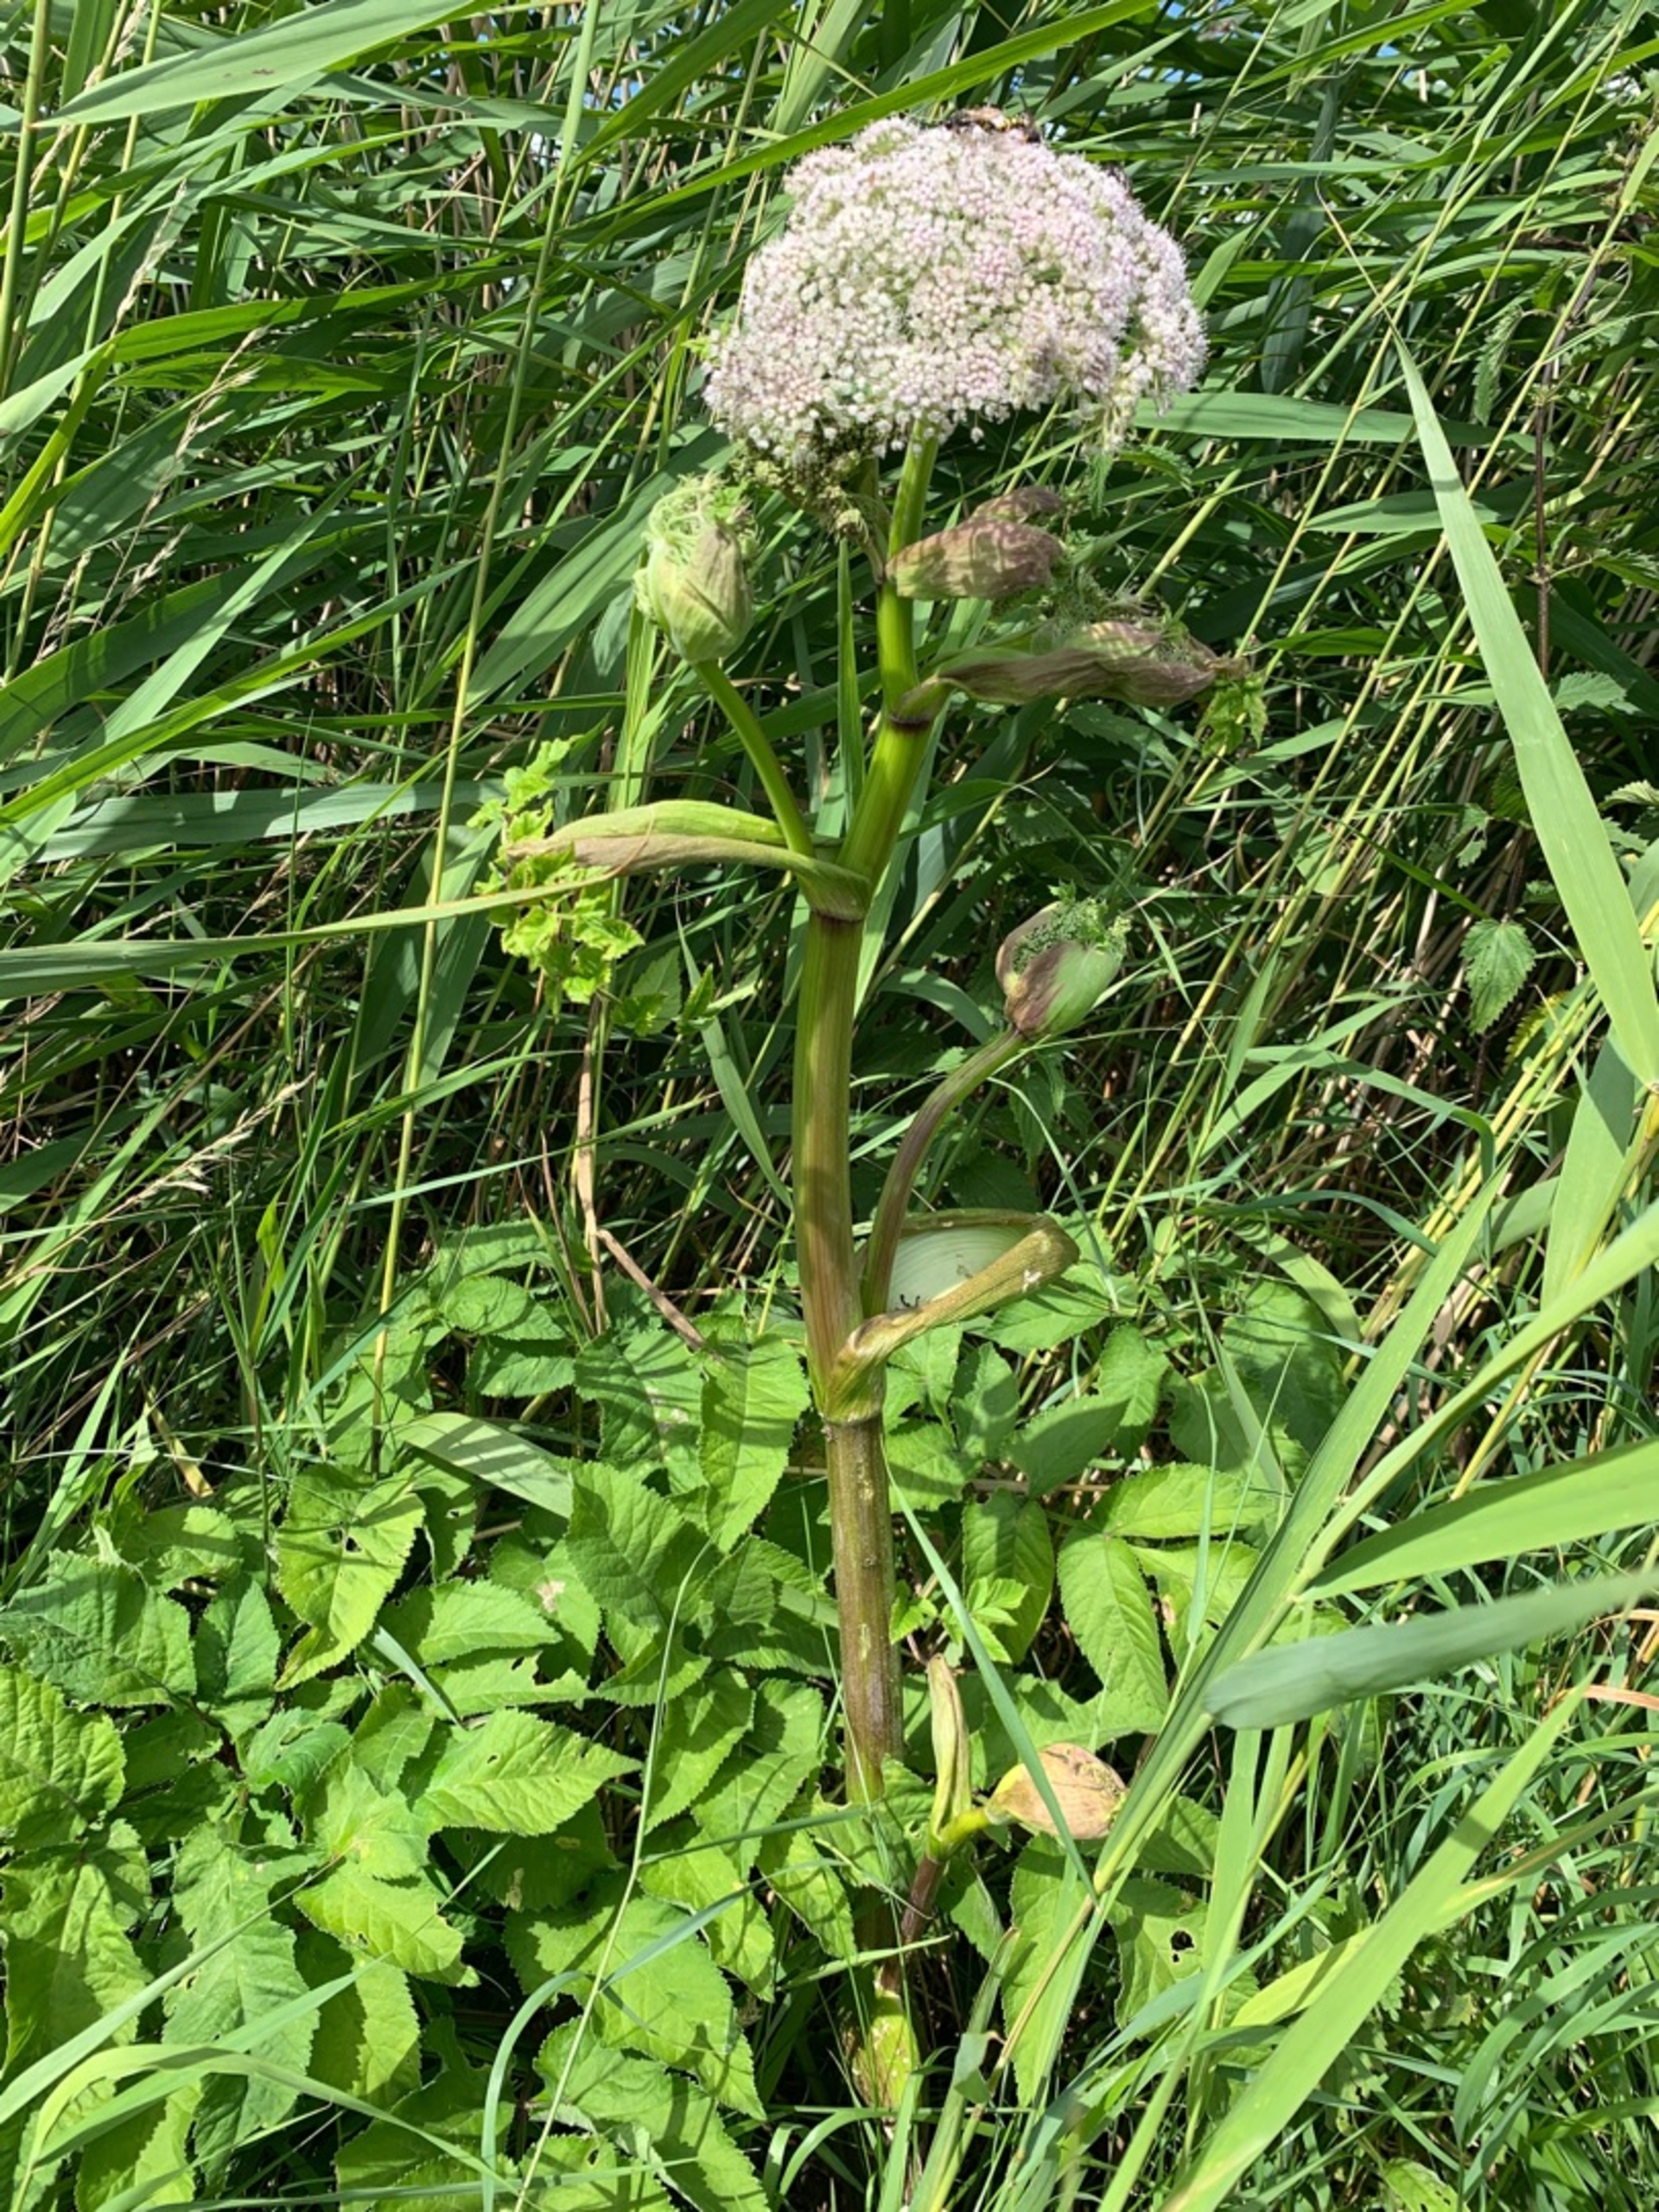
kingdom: Plantae
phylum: Tracheophyta
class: Magnoliopsida
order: Apiales
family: Apiaceae
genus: Angelica
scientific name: Angelica sylvestris
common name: Angelik
